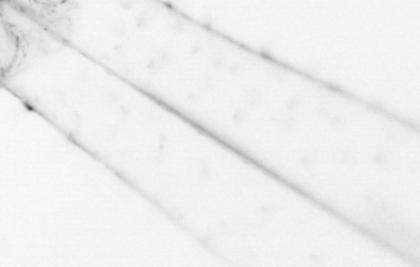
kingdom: Animalia
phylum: Chaetognatha
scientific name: Chaetognatha
